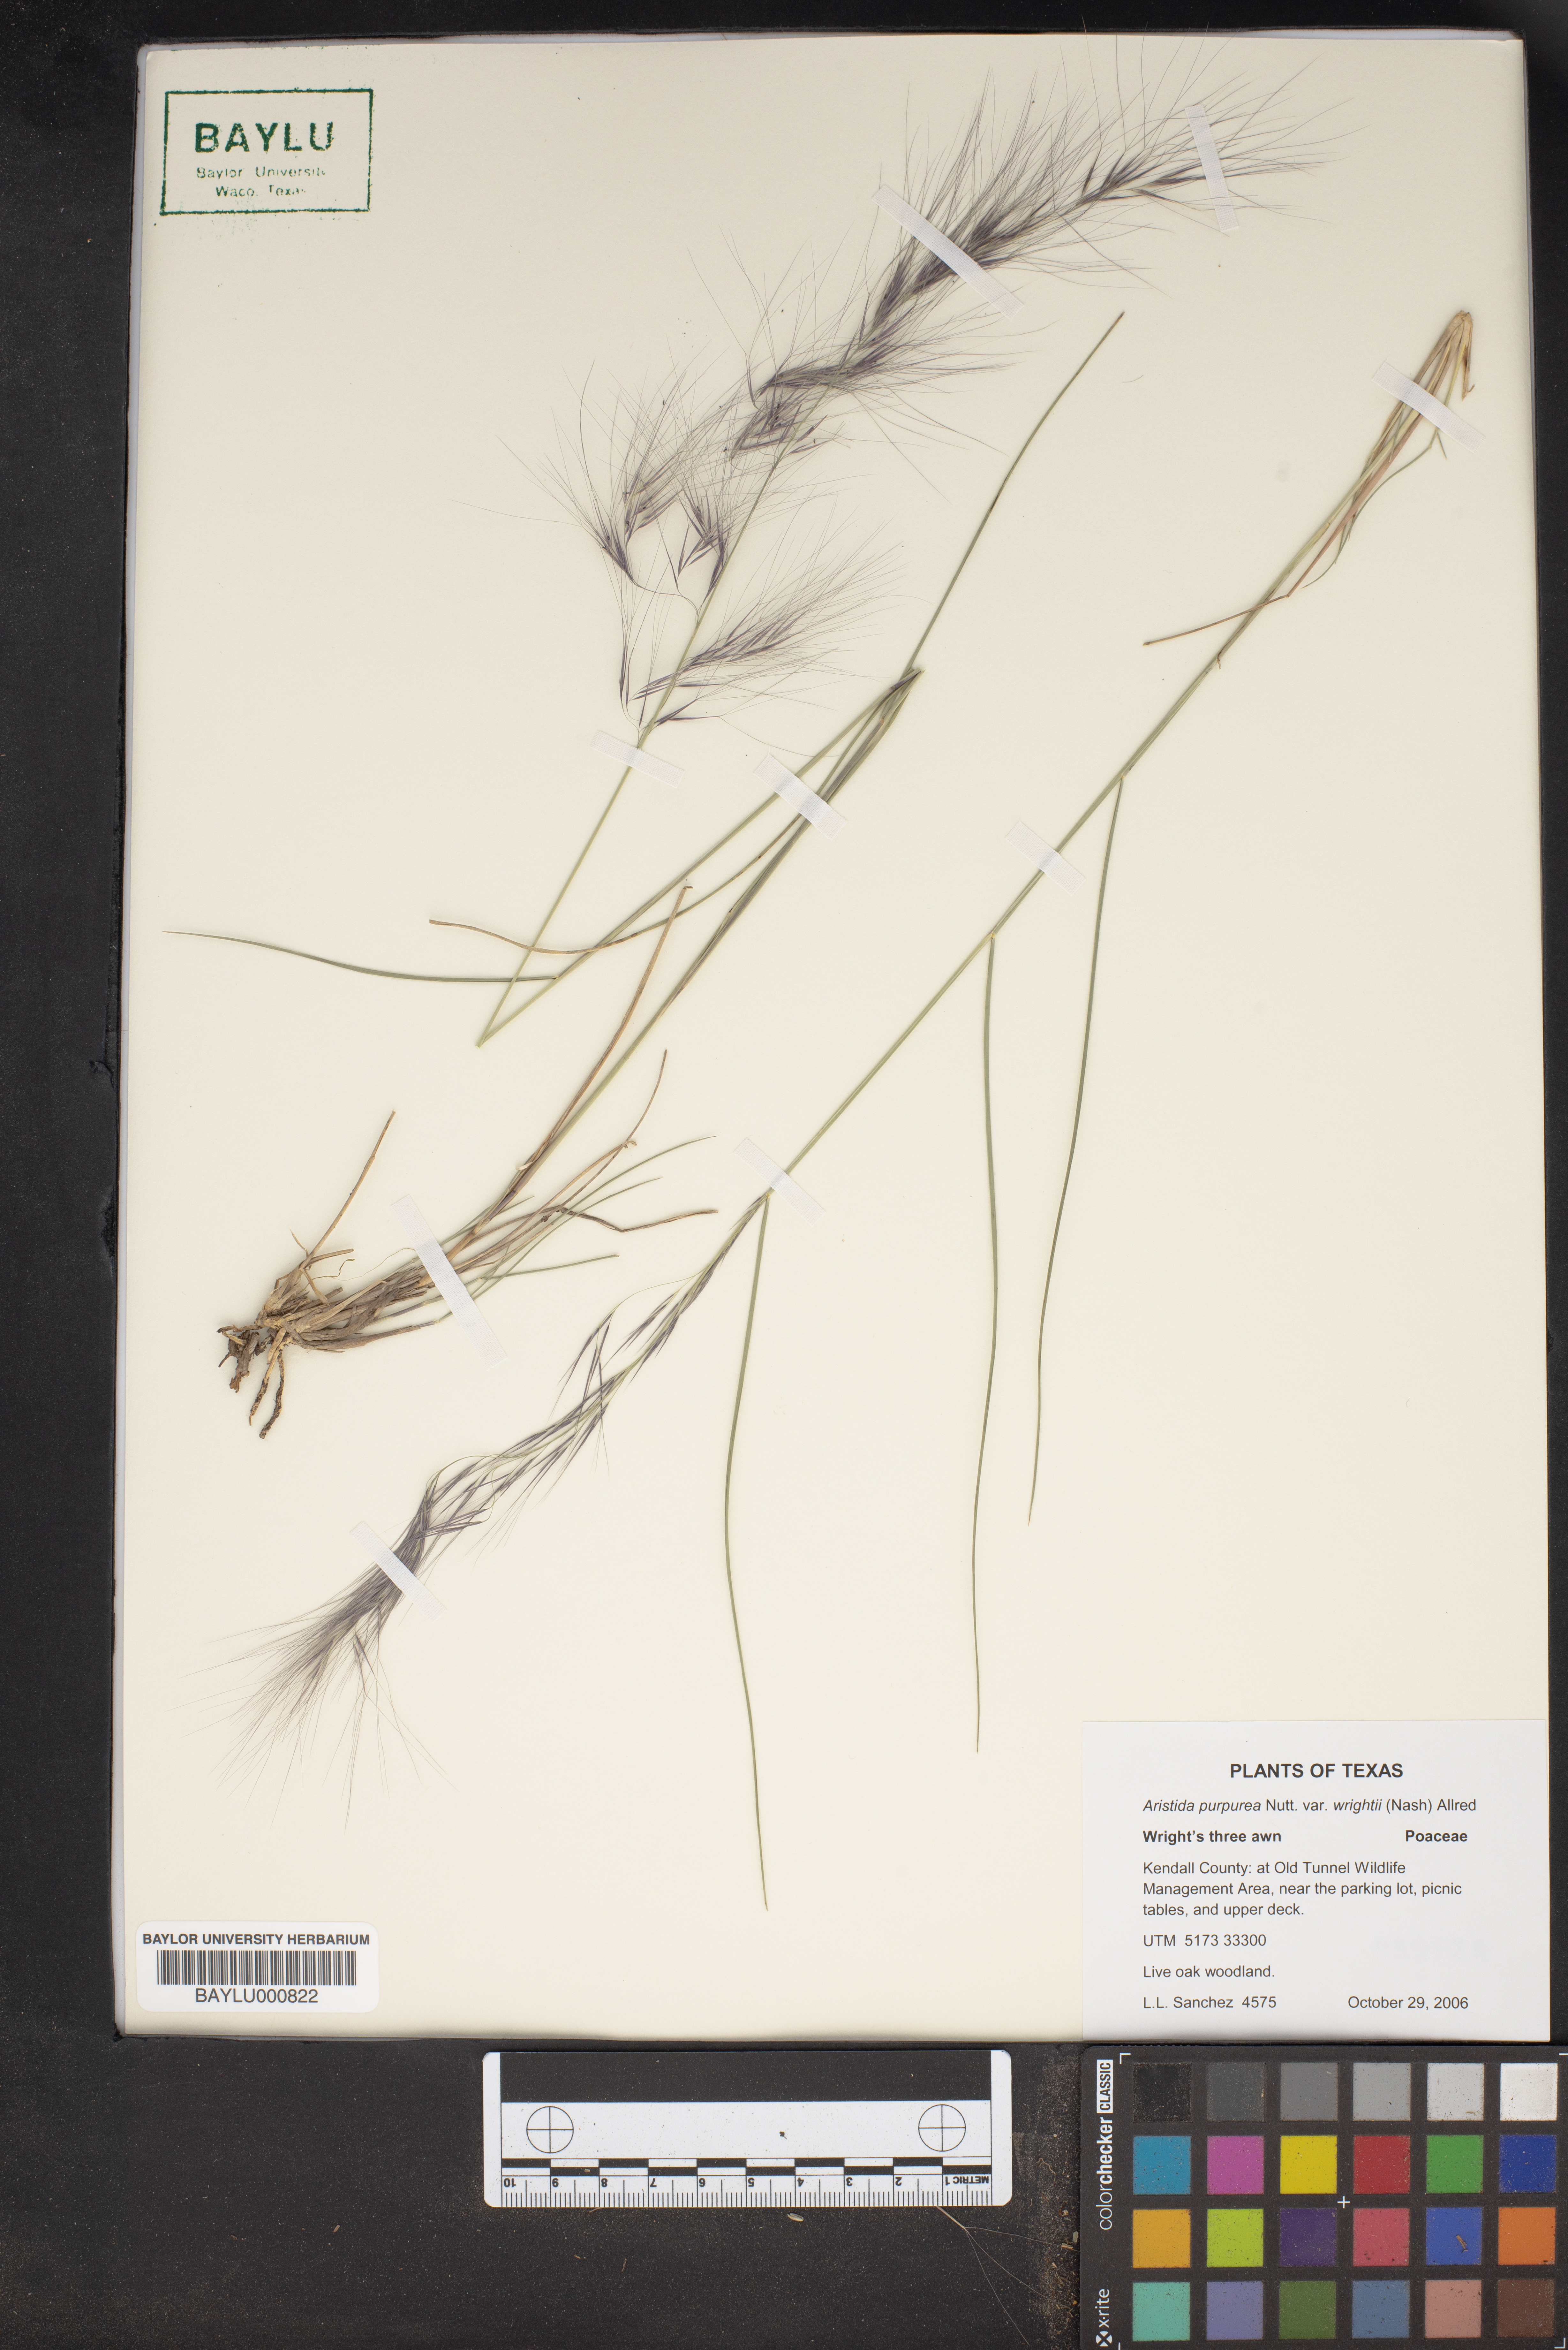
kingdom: Plantae
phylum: Tracheophyta
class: Liliopsida
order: Poales
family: Poaceae
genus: Aristida
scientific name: Aristida wrightii
